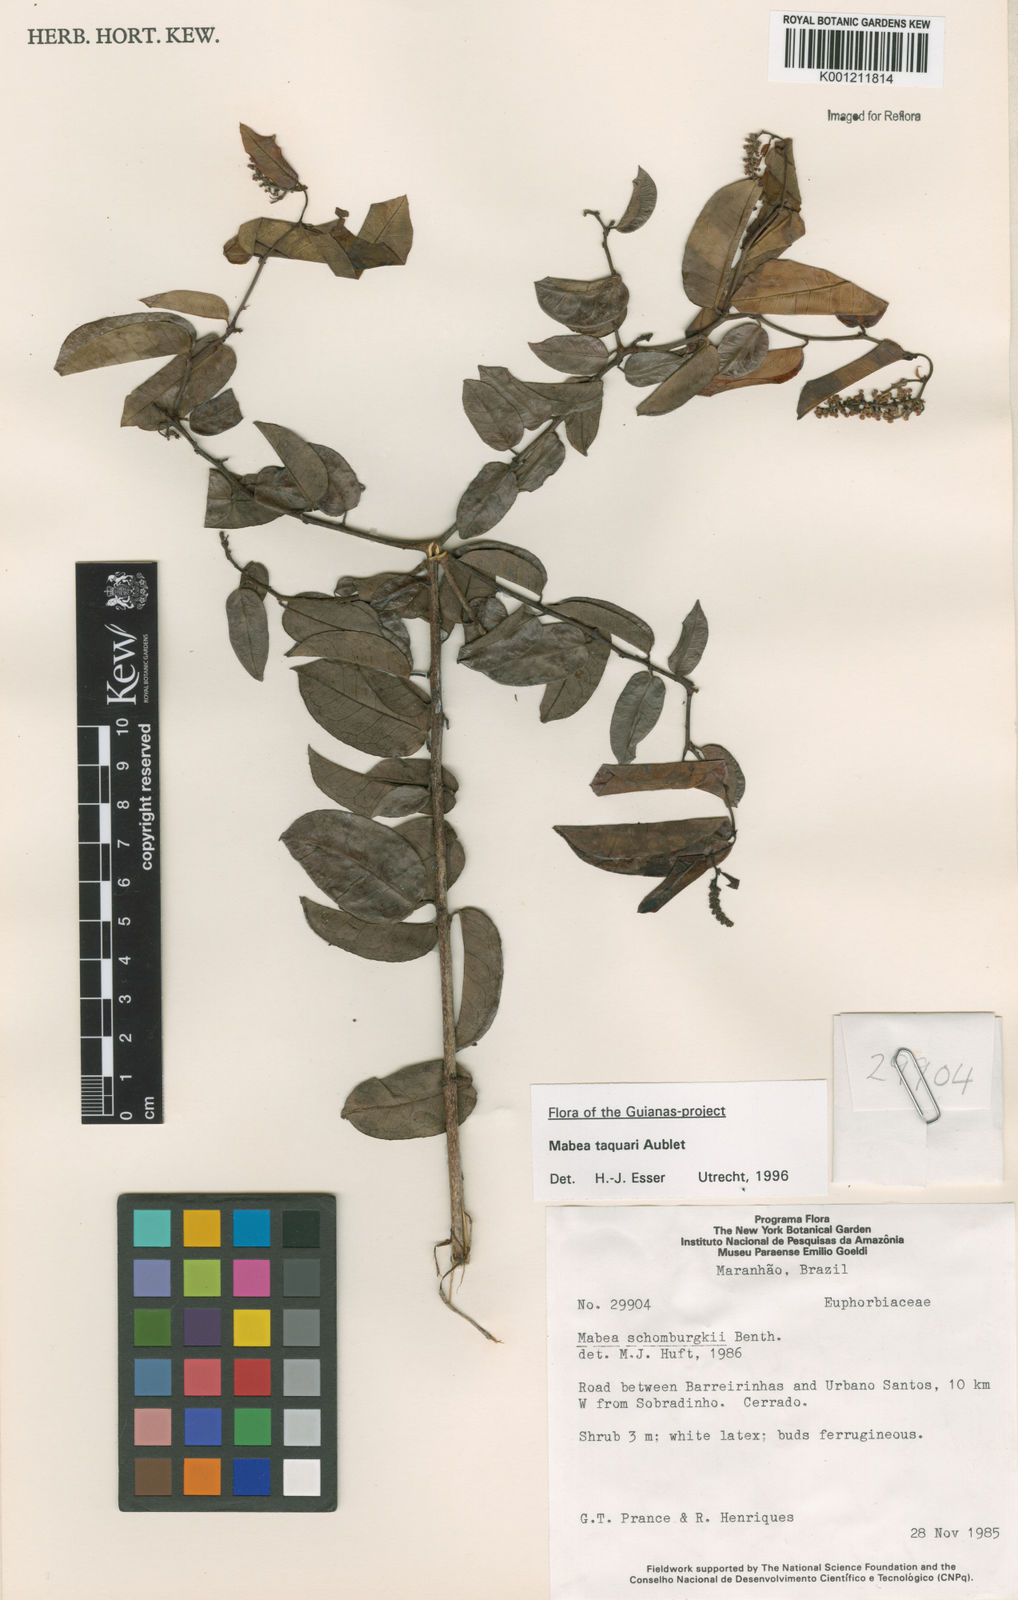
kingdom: Plantae
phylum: Tracheophyta
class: Magnoliopsida
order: Malpighiales
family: Euphorbiaceae
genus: Mabea
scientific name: Mabea taquari
